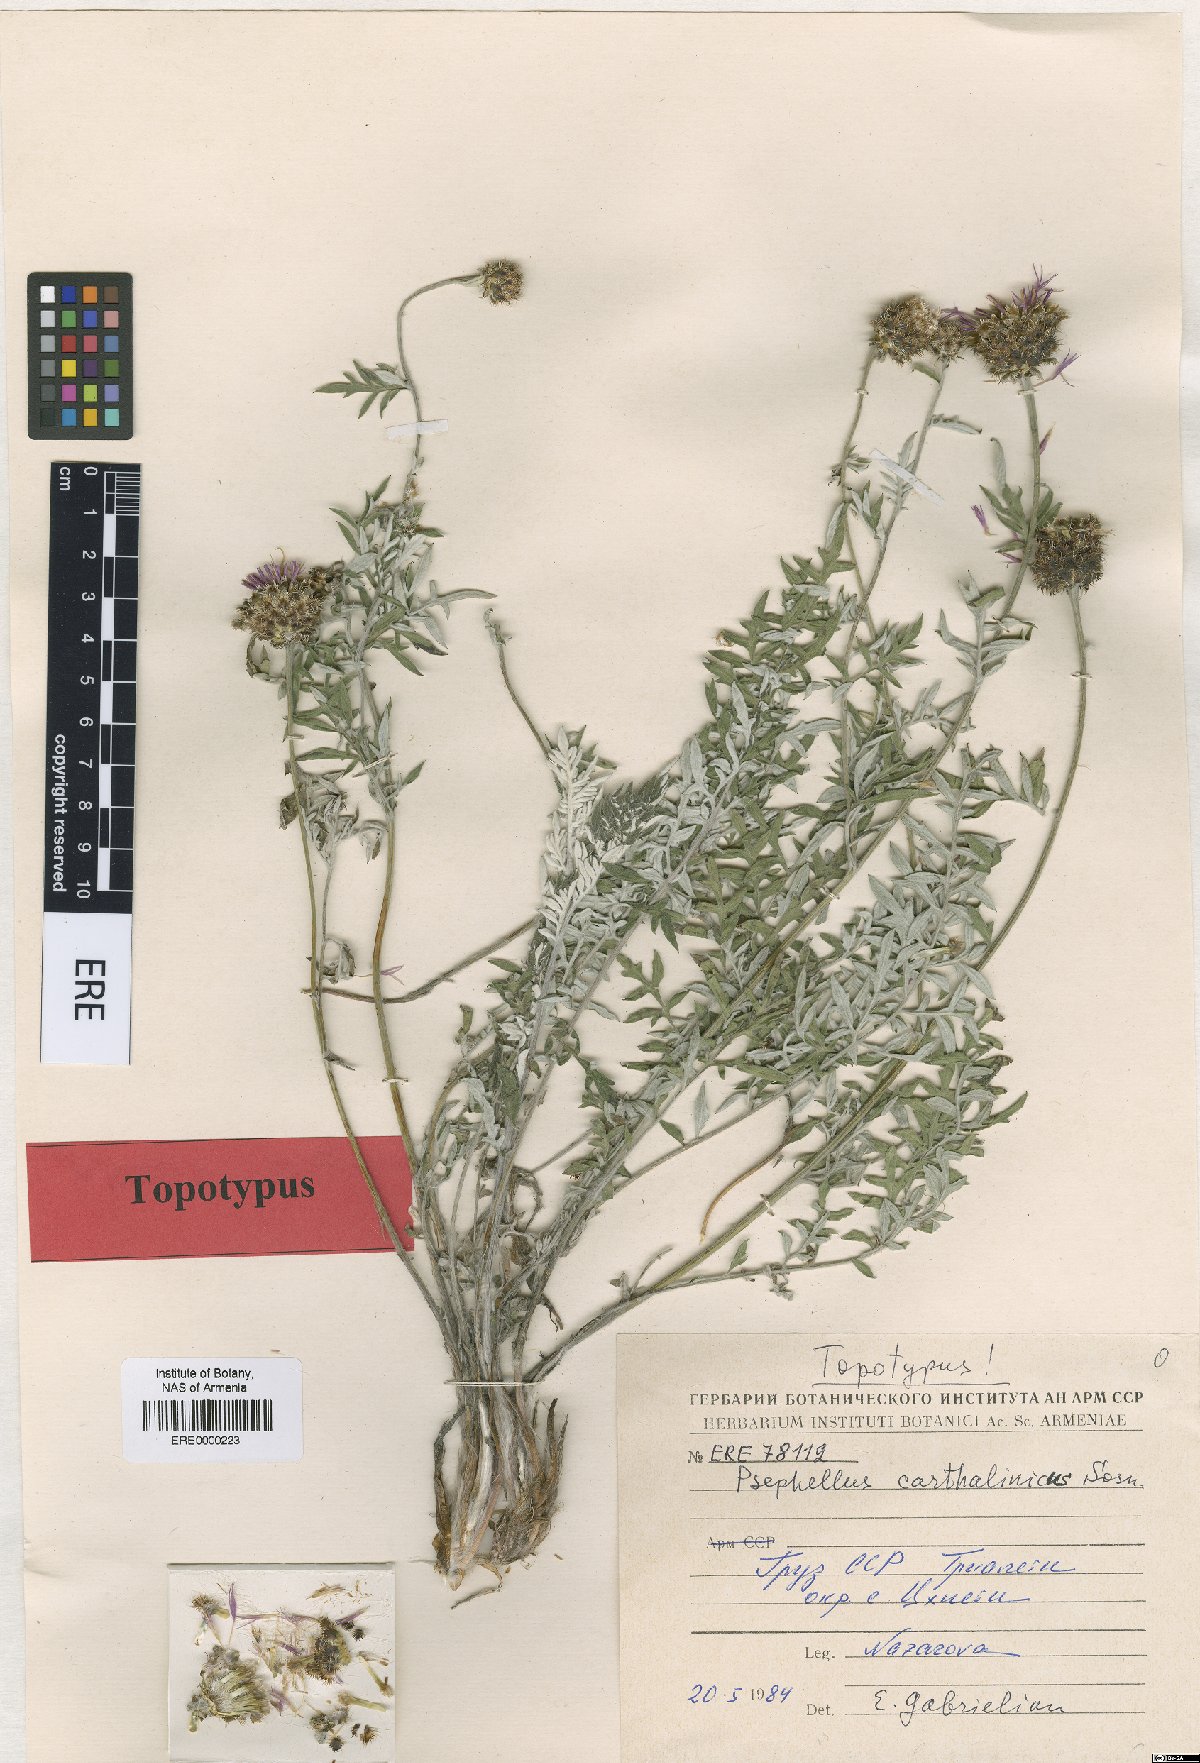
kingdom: Plantae
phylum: Tracheophyta
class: Magnoliopsida
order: Asterales
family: Asteraceae
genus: Psephellus
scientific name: Psephellus carthalinicus
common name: Carthalinian psephellus
